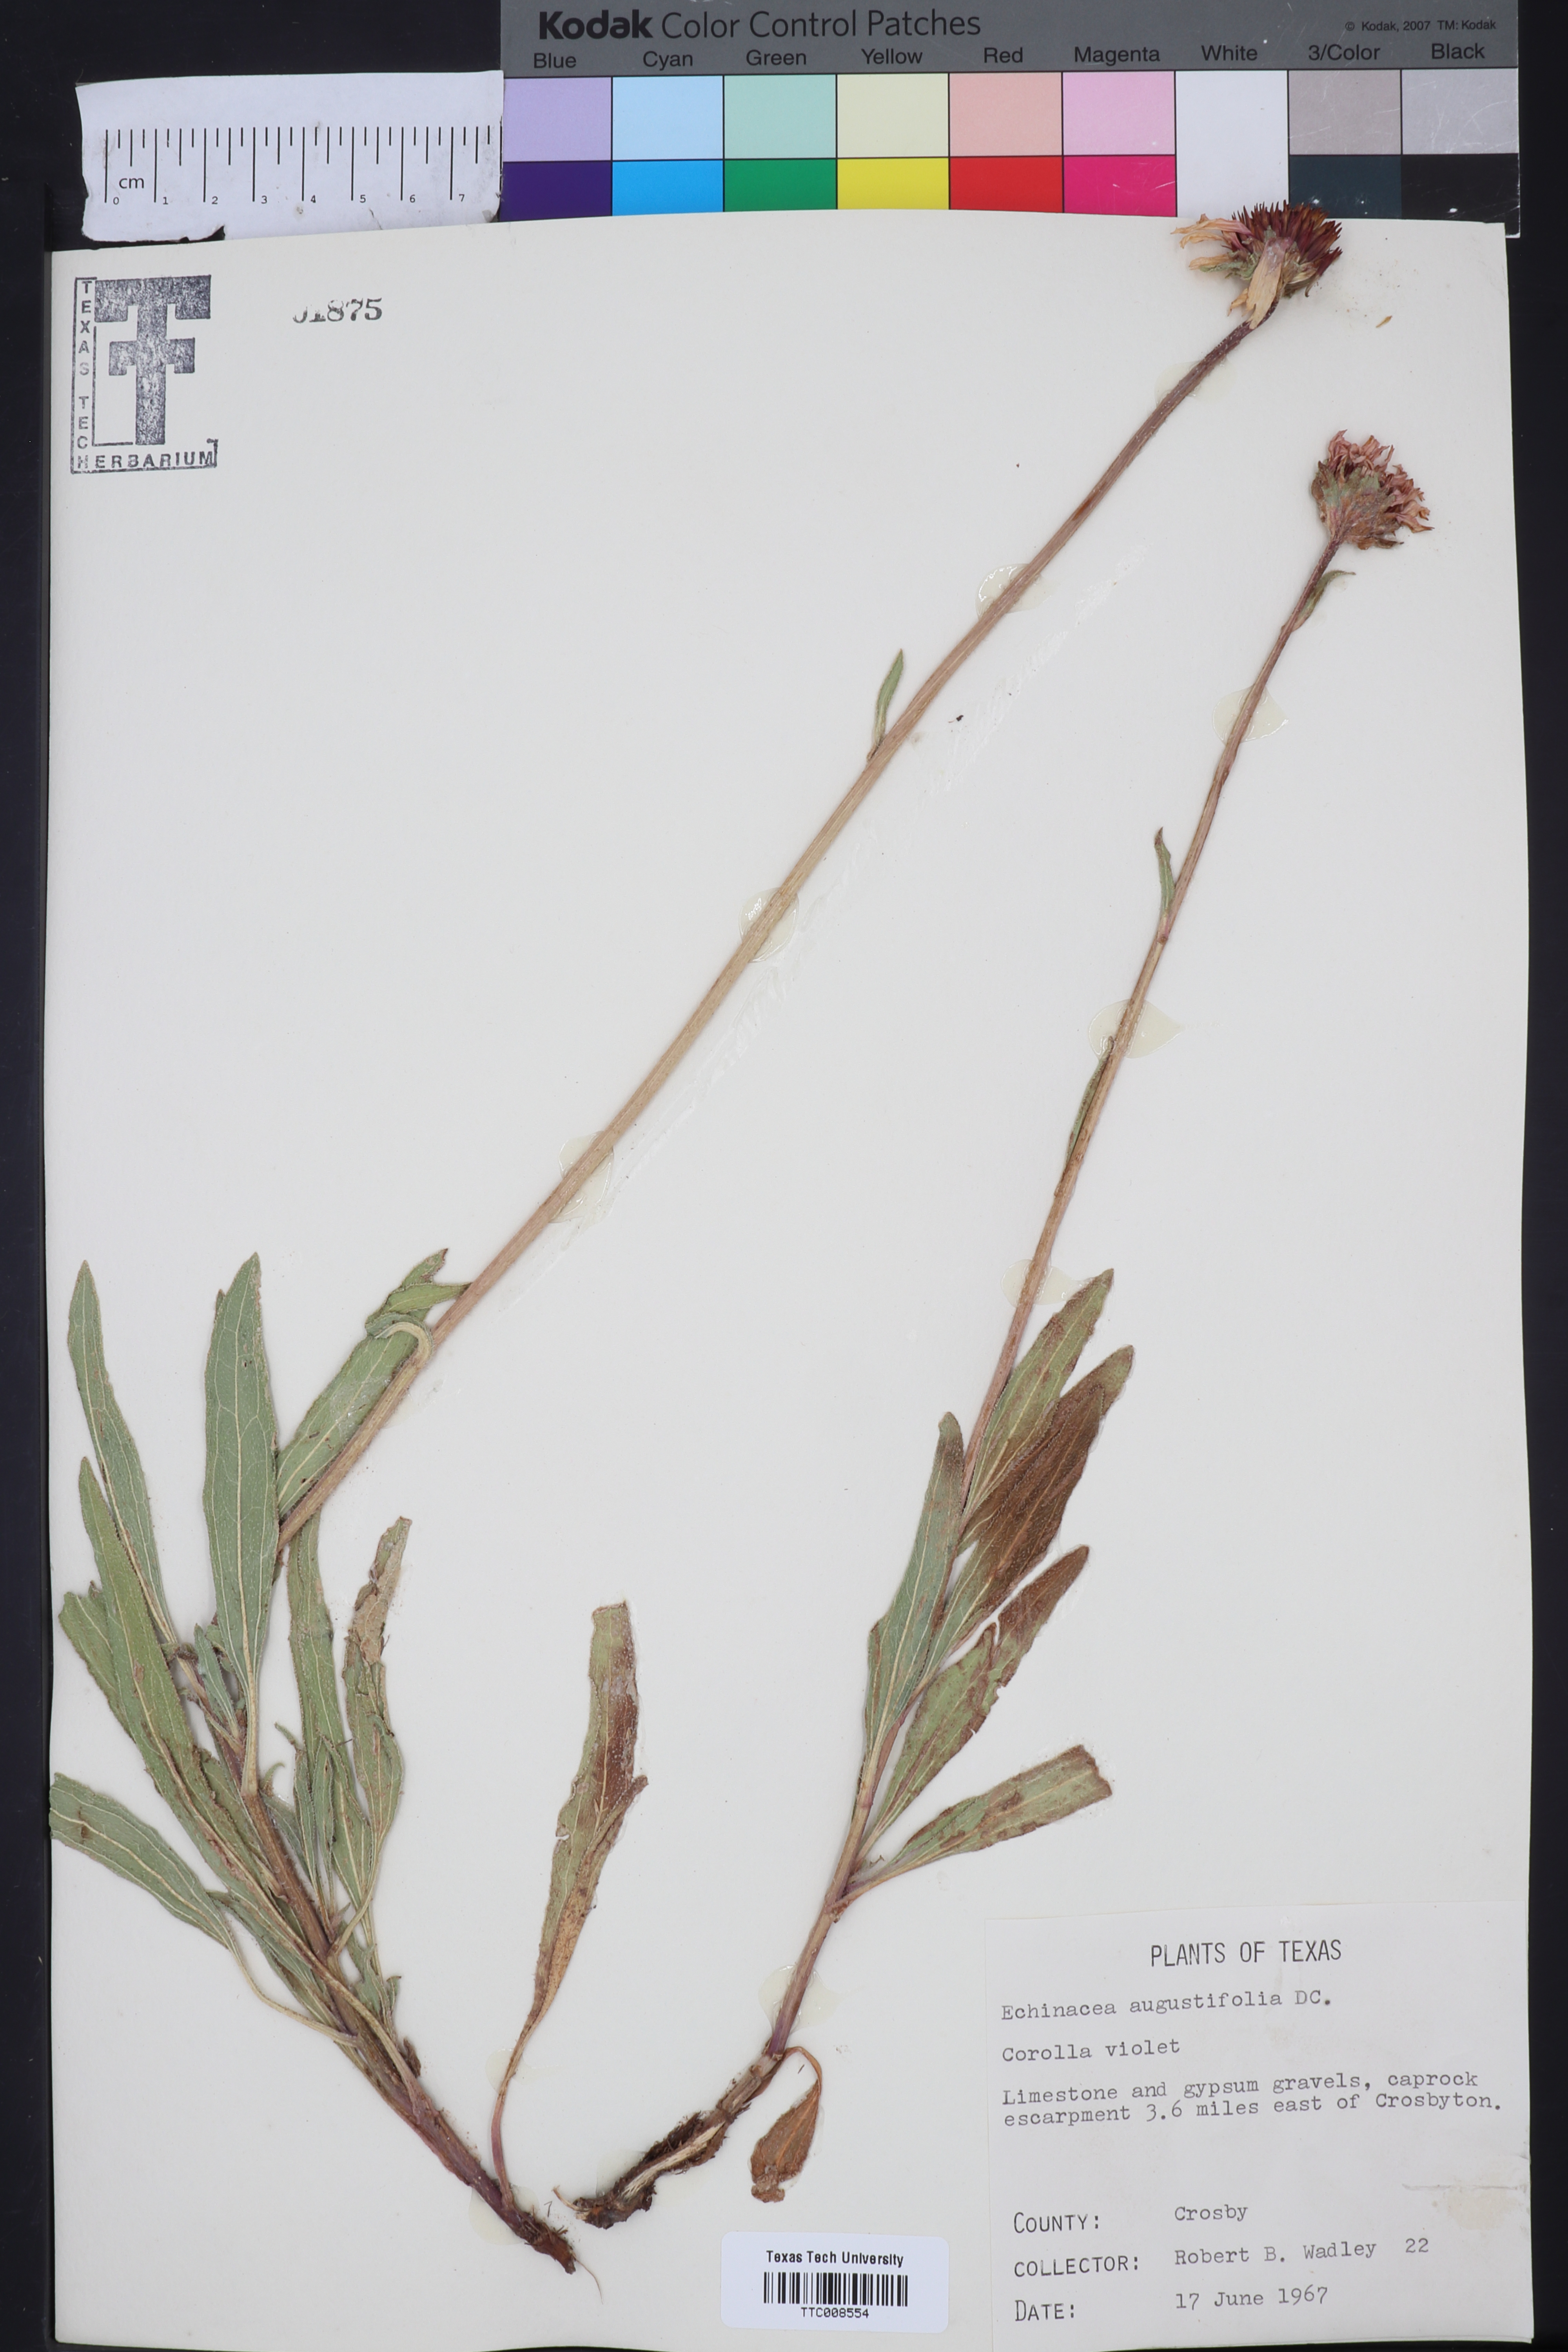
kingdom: Plantae
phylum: Tracheophyta
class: Magnoliopsida
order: Asterales
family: Asteraceae
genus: Echinacea
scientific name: Echinacea angustifolia
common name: Black-sampson echinacea
